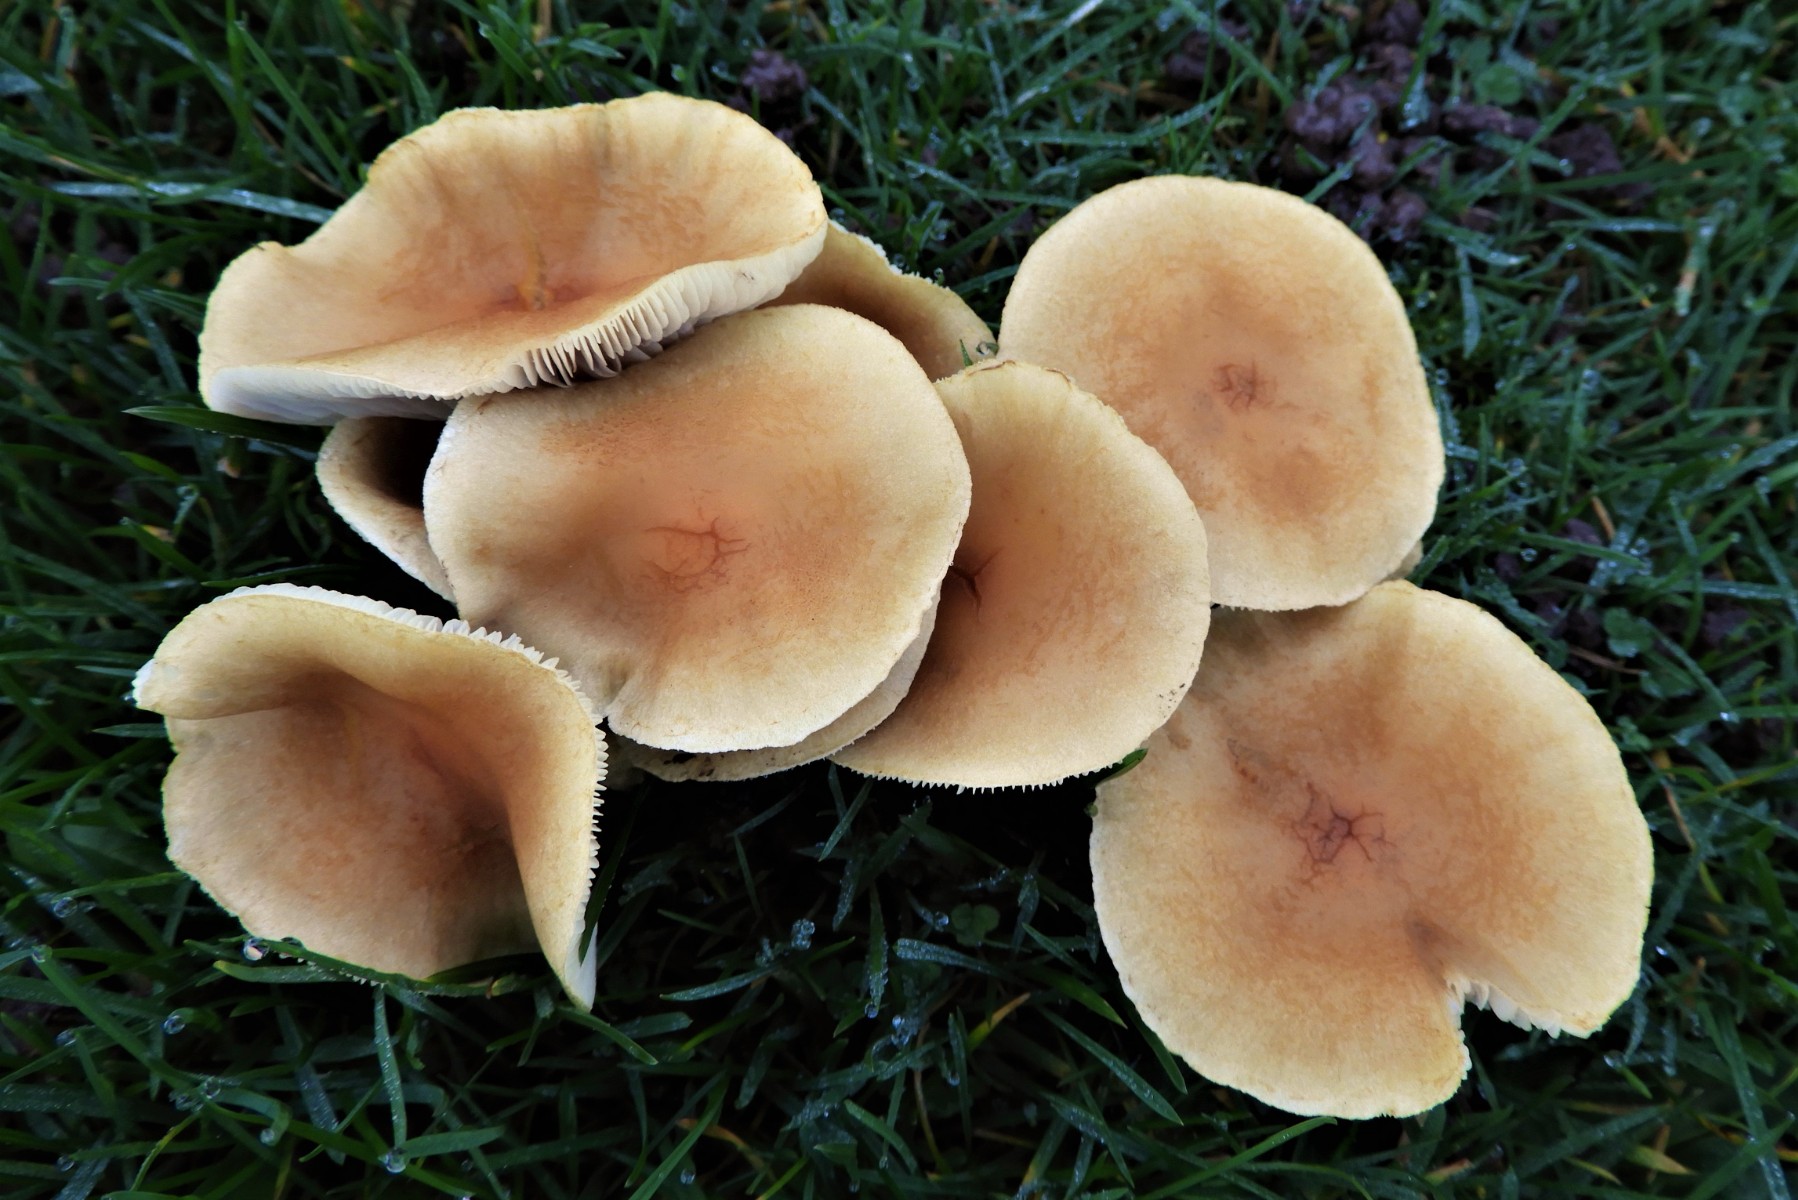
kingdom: Fungi
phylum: Basidiomycota
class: Agaricomycetes
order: Agaricales
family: Strophariaceae
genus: Hypholoma
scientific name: Hypholoma capnoides
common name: gran-svovlhat
